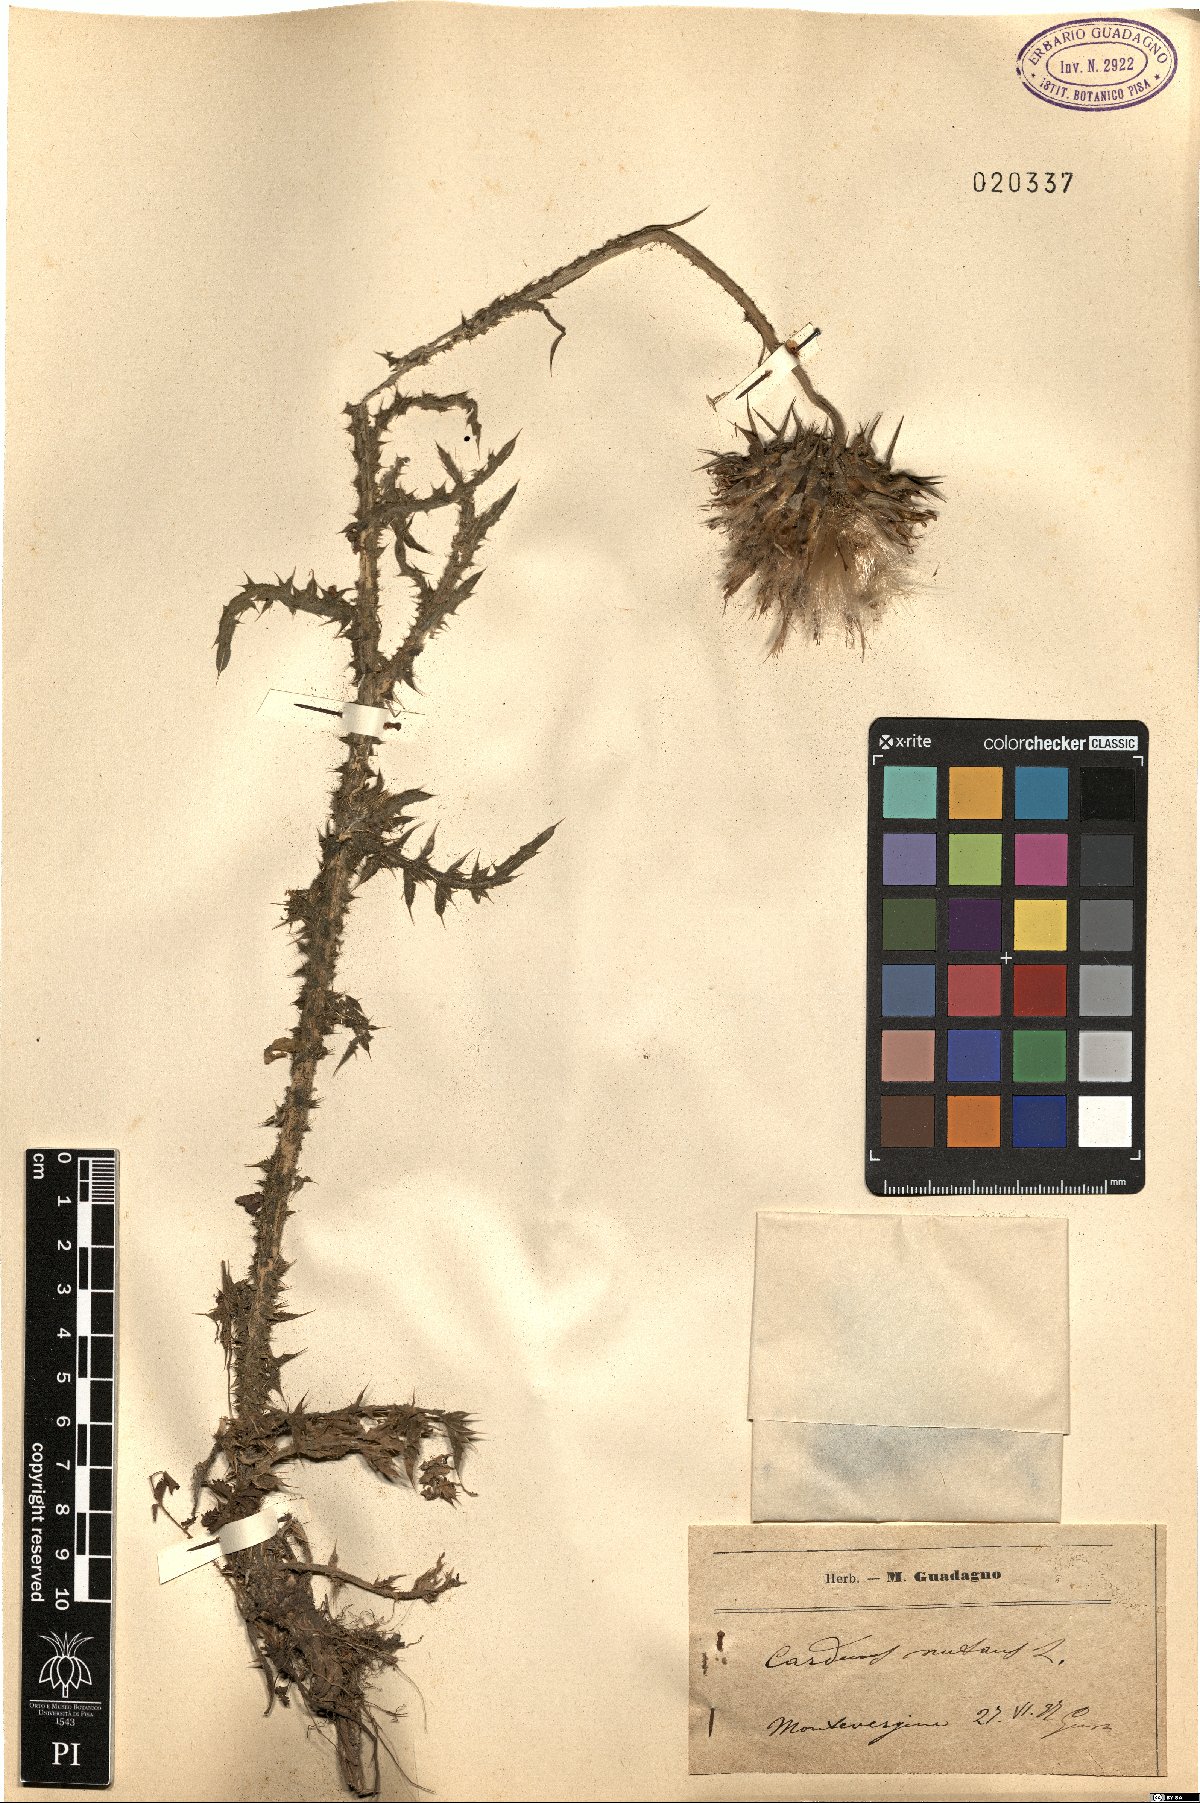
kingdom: Plantae
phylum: Tracheophyta
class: Magnoliopsida
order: Asterales
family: Asteraceae
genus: Carduus
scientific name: Carduus nutans
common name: Musk thistle
